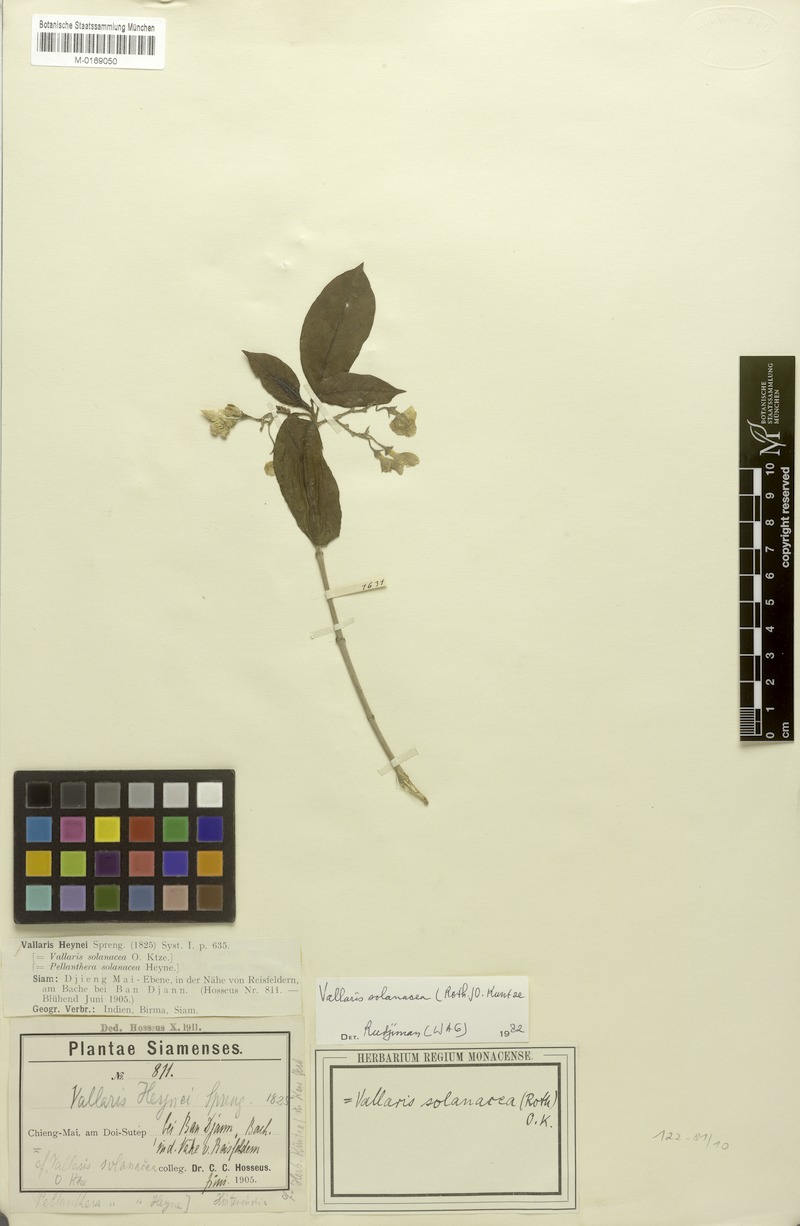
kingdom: Plantae
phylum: Tracheophyta
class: Magnoliopsida
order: Gentianales
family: Apocynaceae
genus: Vallaris
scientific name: Vallaris solanacea
